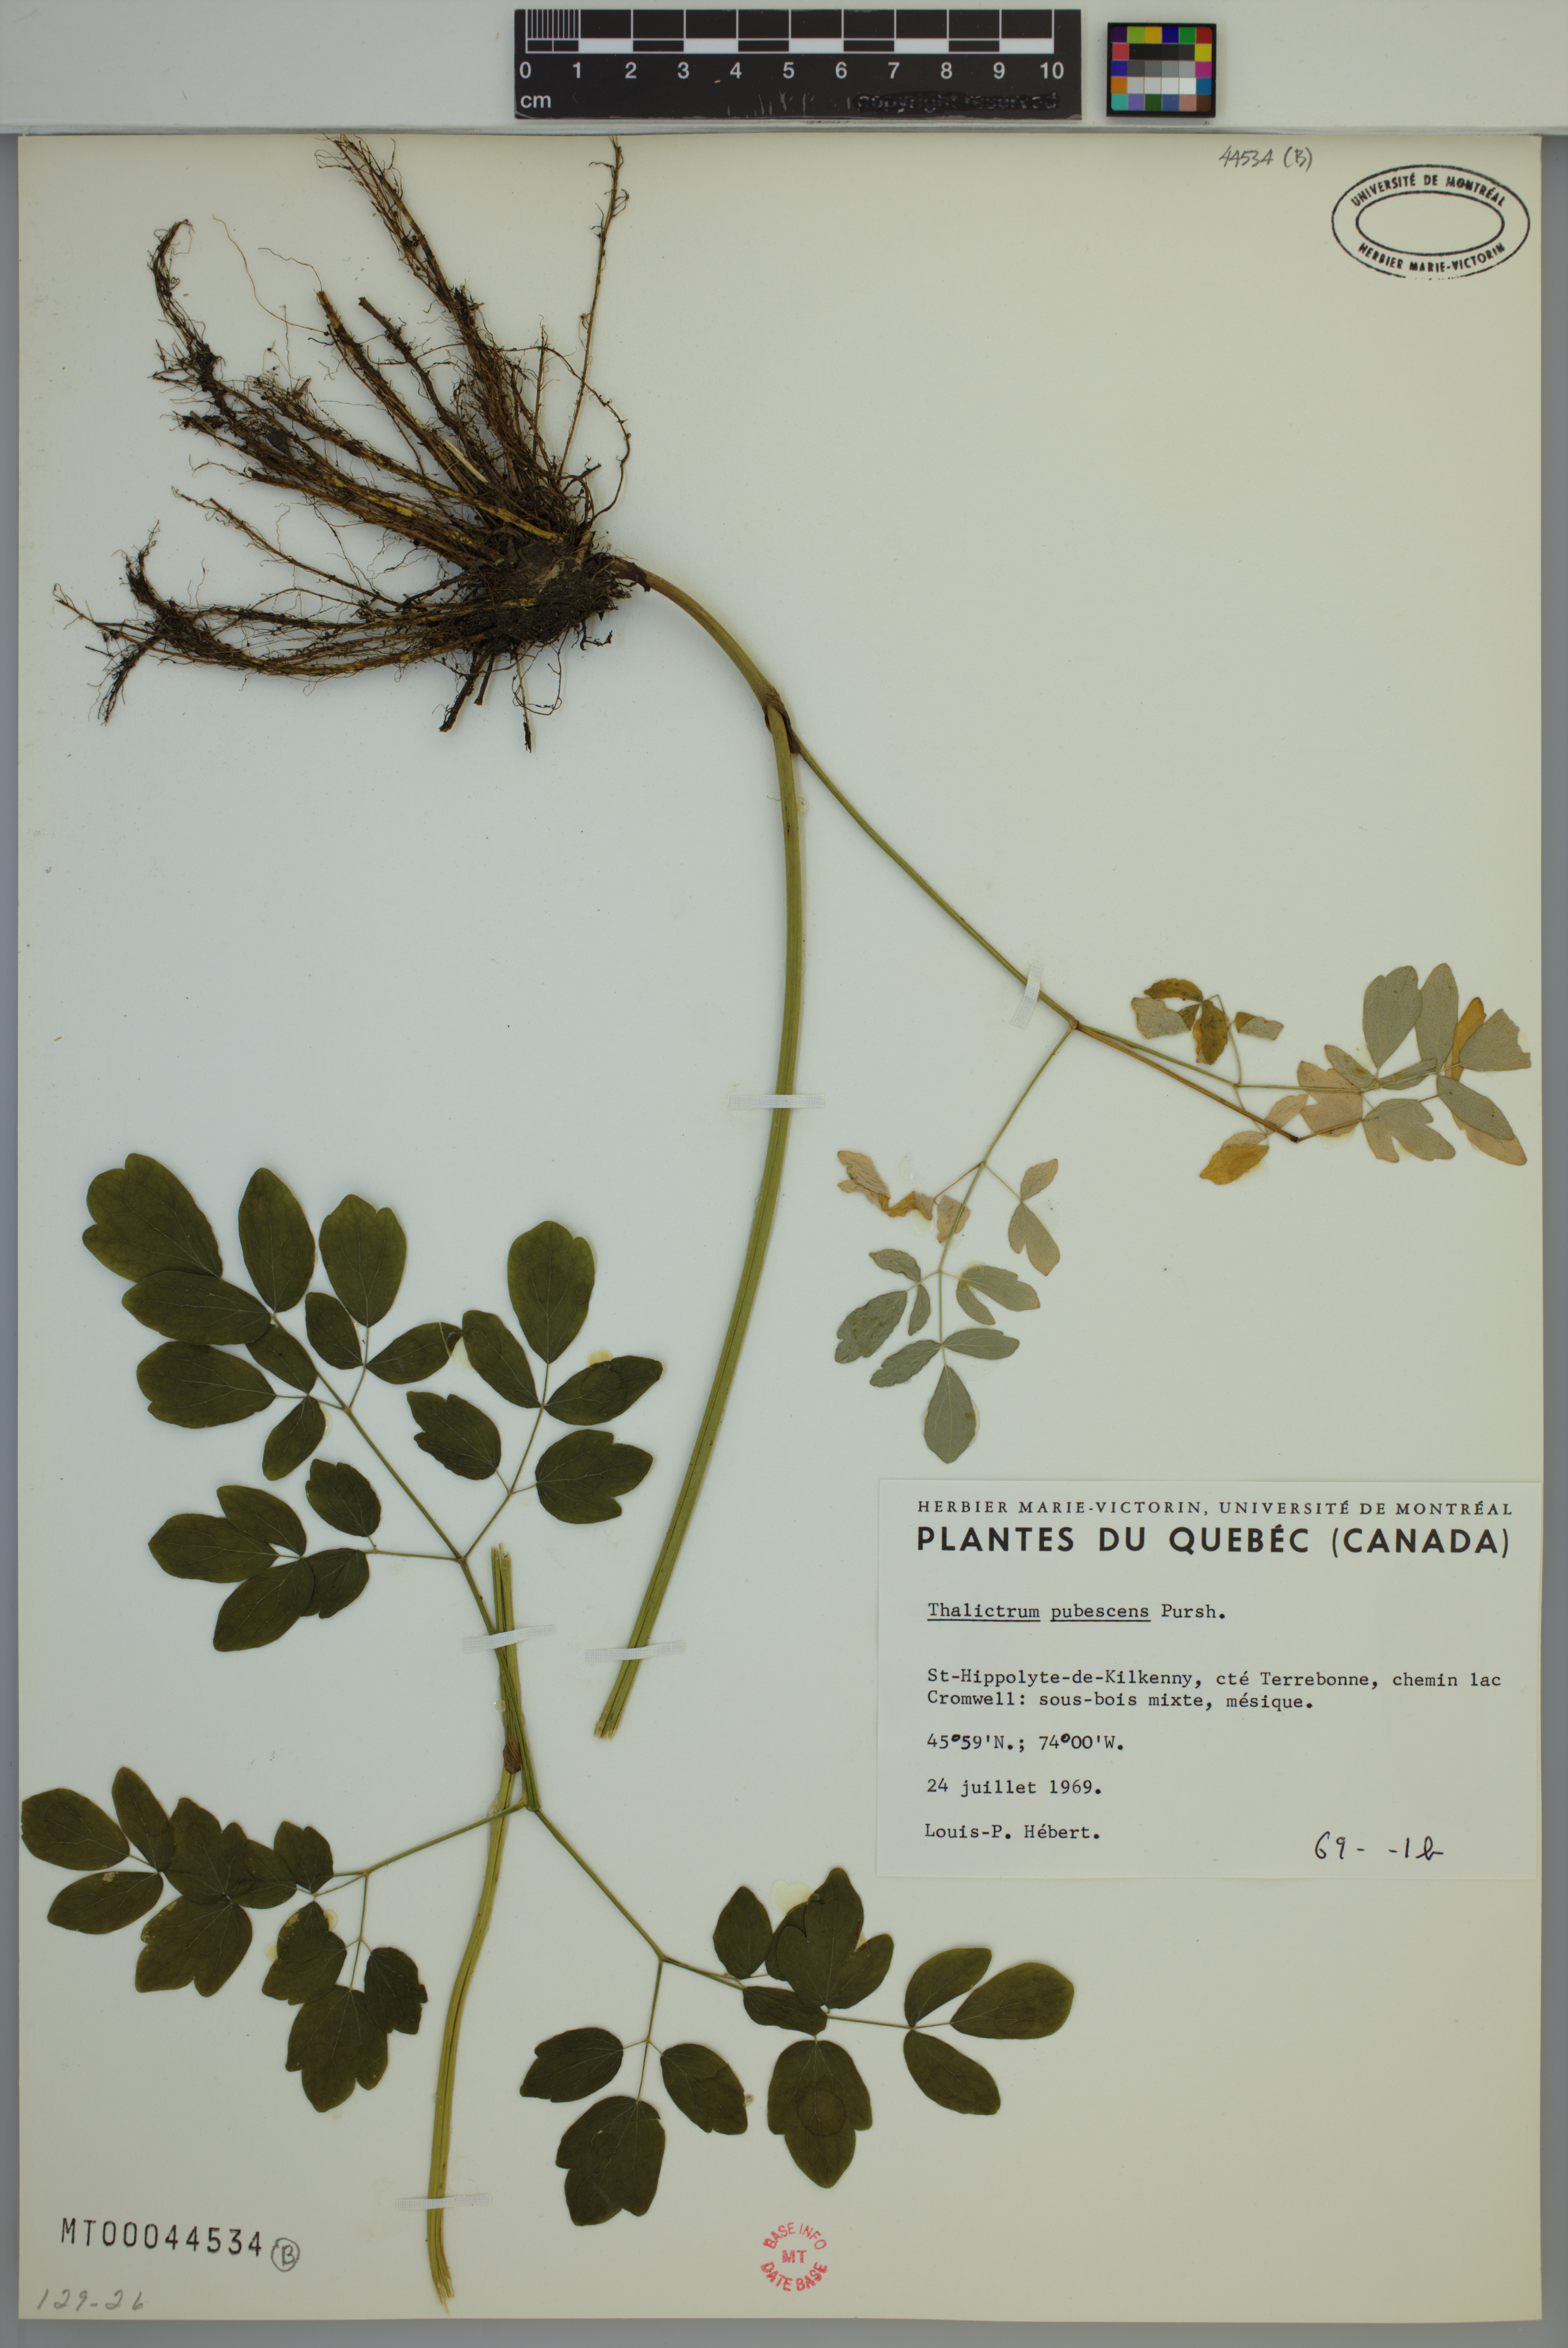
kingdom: Plantae
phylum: Tracheophyta
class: Magnoliopsida
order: Ranunculales
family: Ranunculaceae
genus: Thalictrum
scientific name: Thalictrum pubescens
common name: King-of-the-meadow
